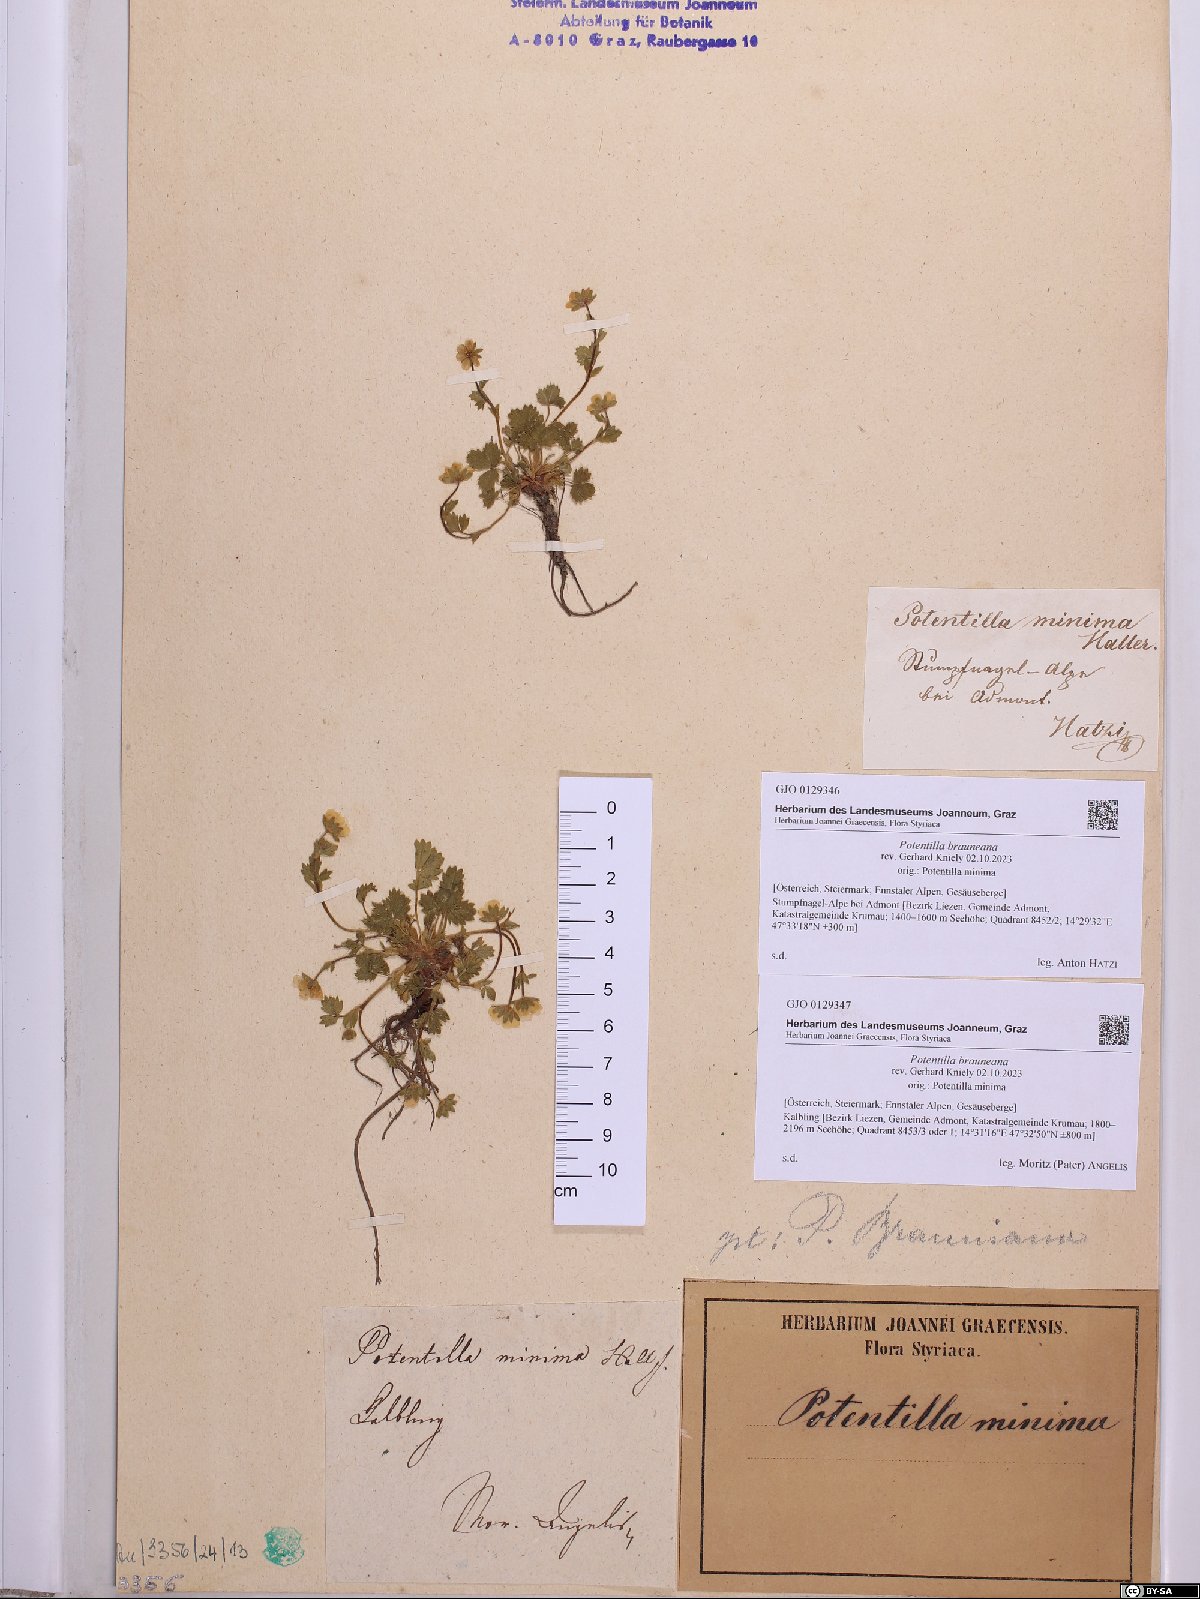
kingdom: Plantae
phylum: Tracheophyta
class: Magnoliopsida
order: Rosales
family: Rosaceae
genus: Potentilla
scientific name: Potentilla brauneana
